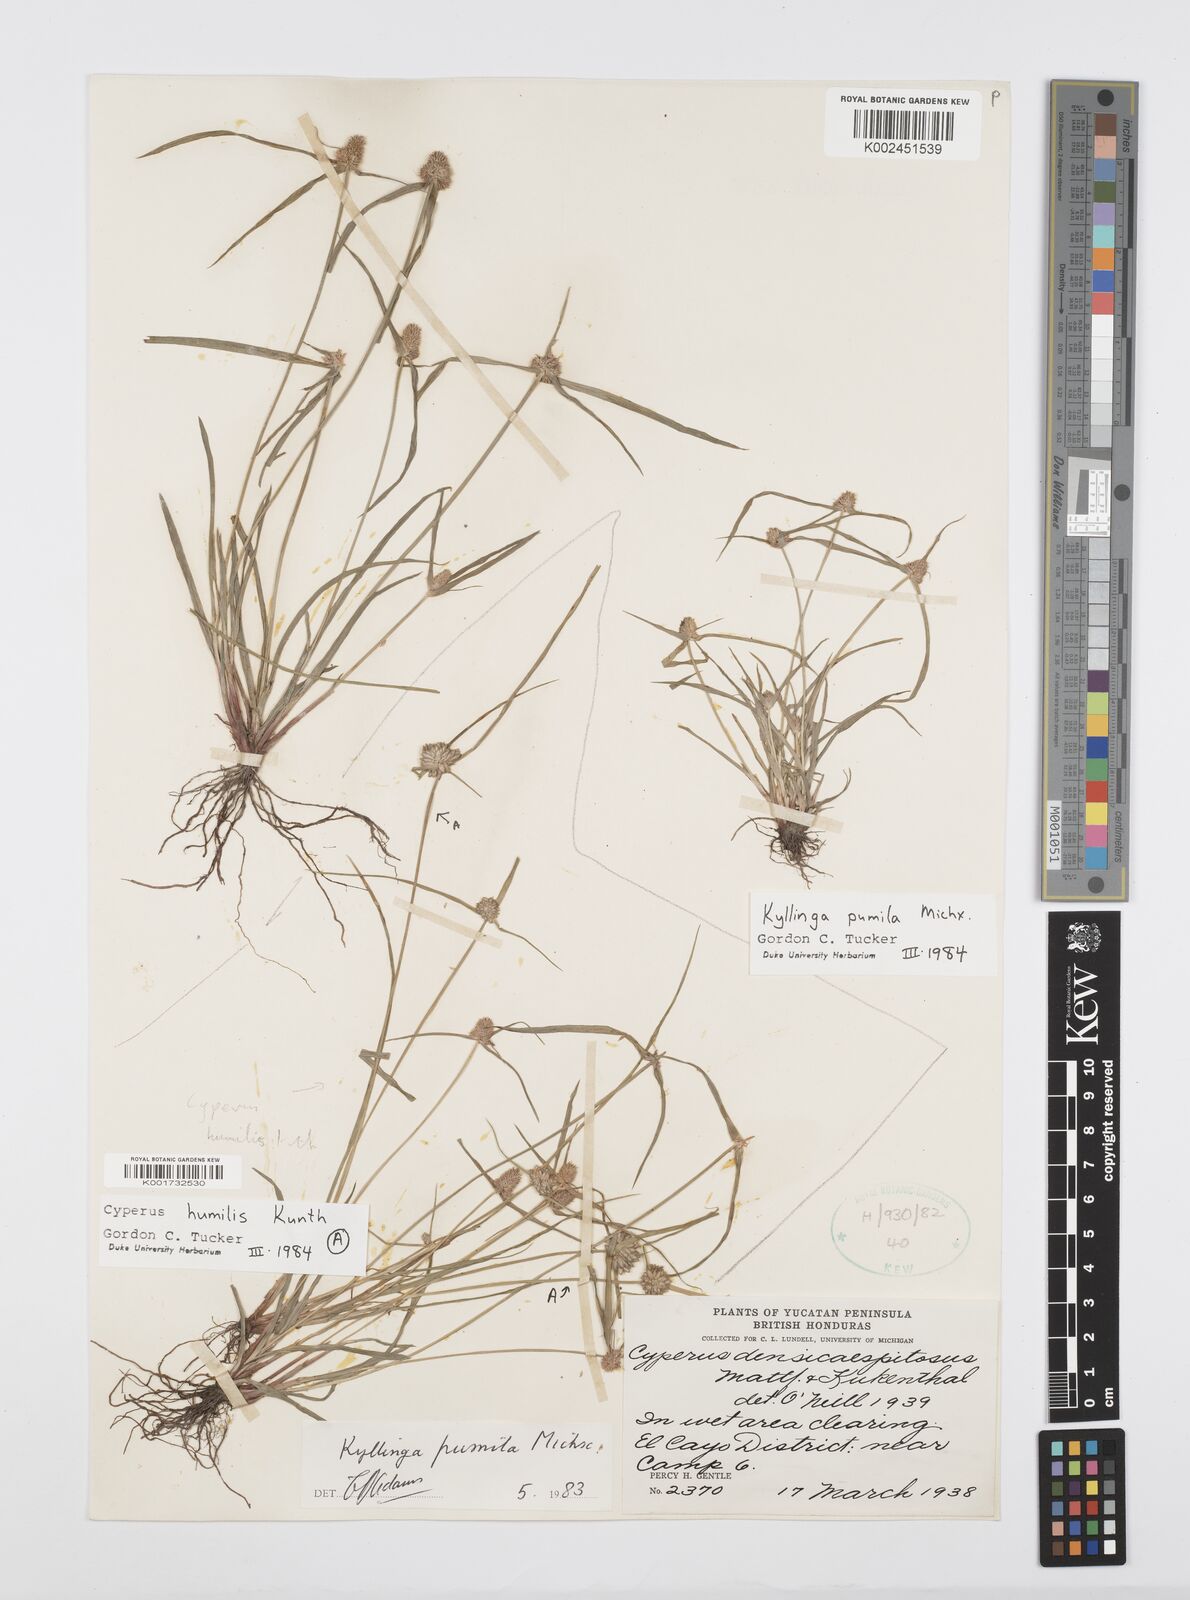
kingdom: Plantae
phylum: Tracheophyta
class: Liliopsida
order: Poales
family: Cyperaceae
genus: Cyperus
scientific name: Cyperus hortensis
